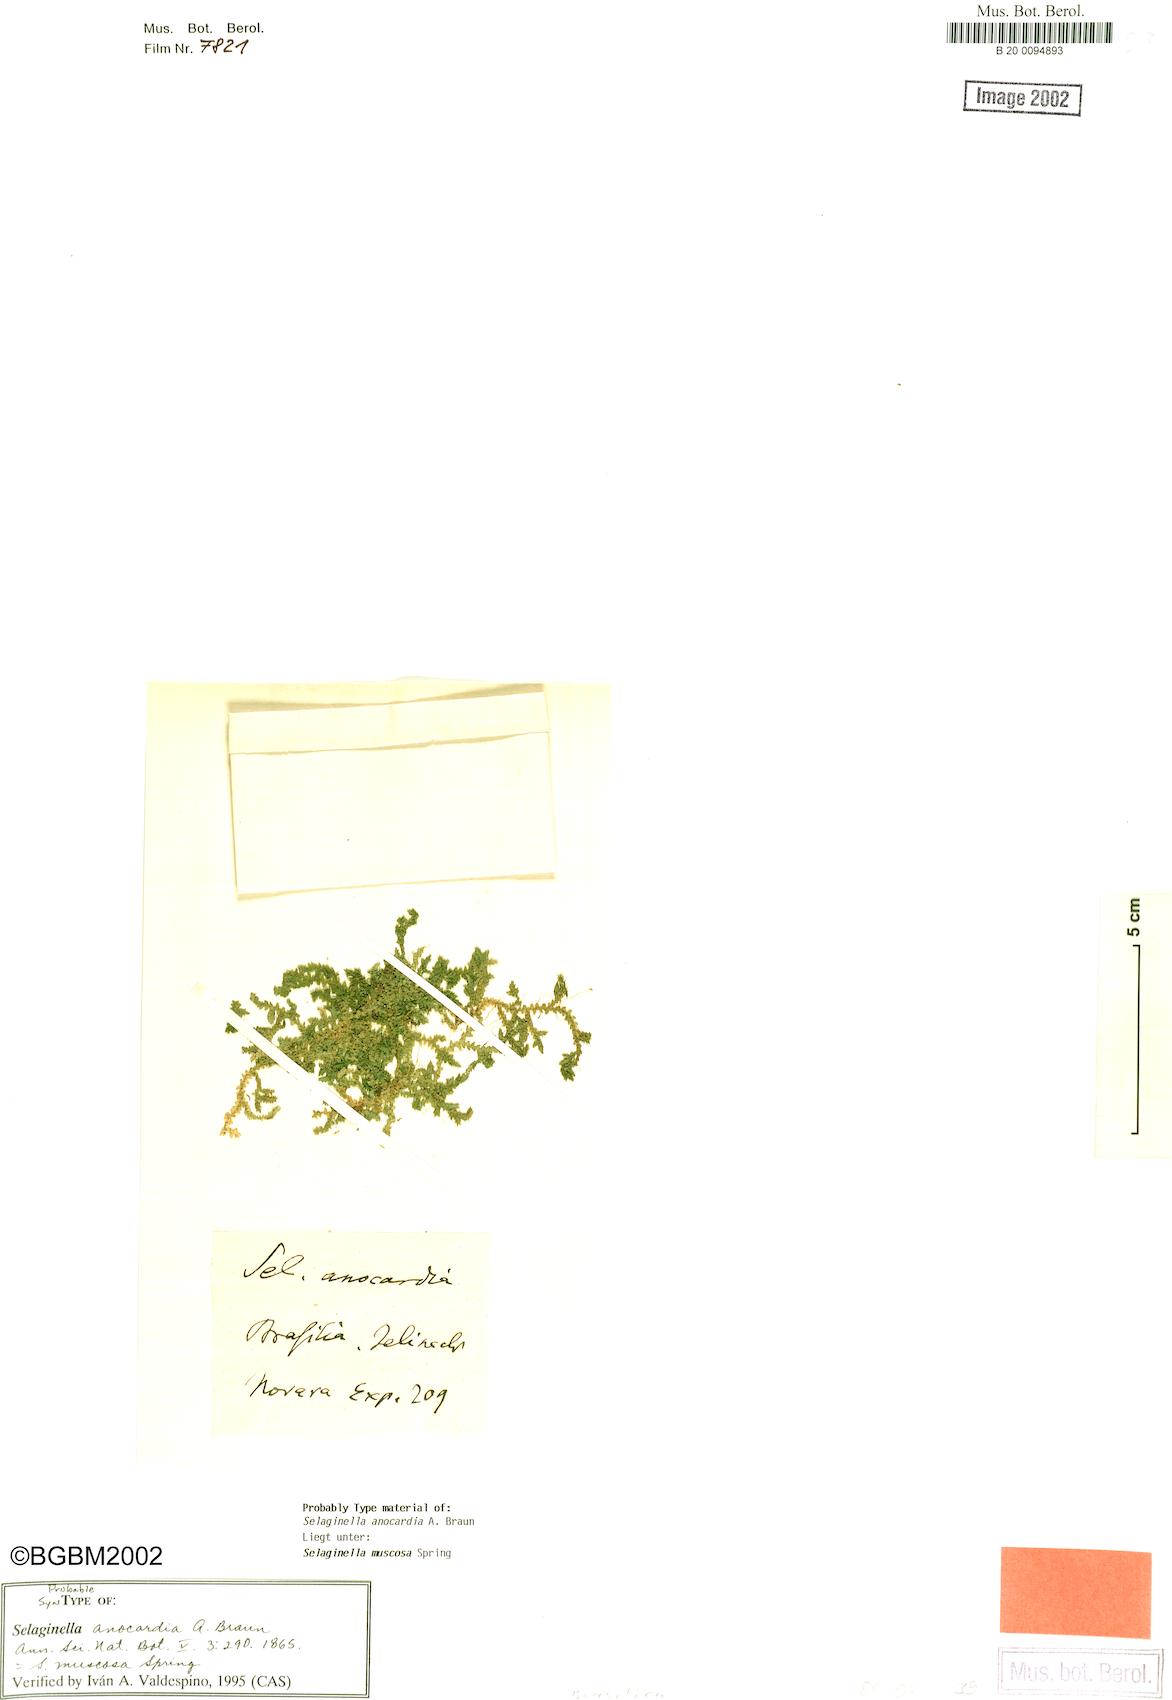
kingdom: Plantae
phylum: Tracheophyta
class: Lycopodiopsida
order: Selaginellales
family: Selaginellaceae
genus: Selaginella
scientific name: Selaginella muscosa
